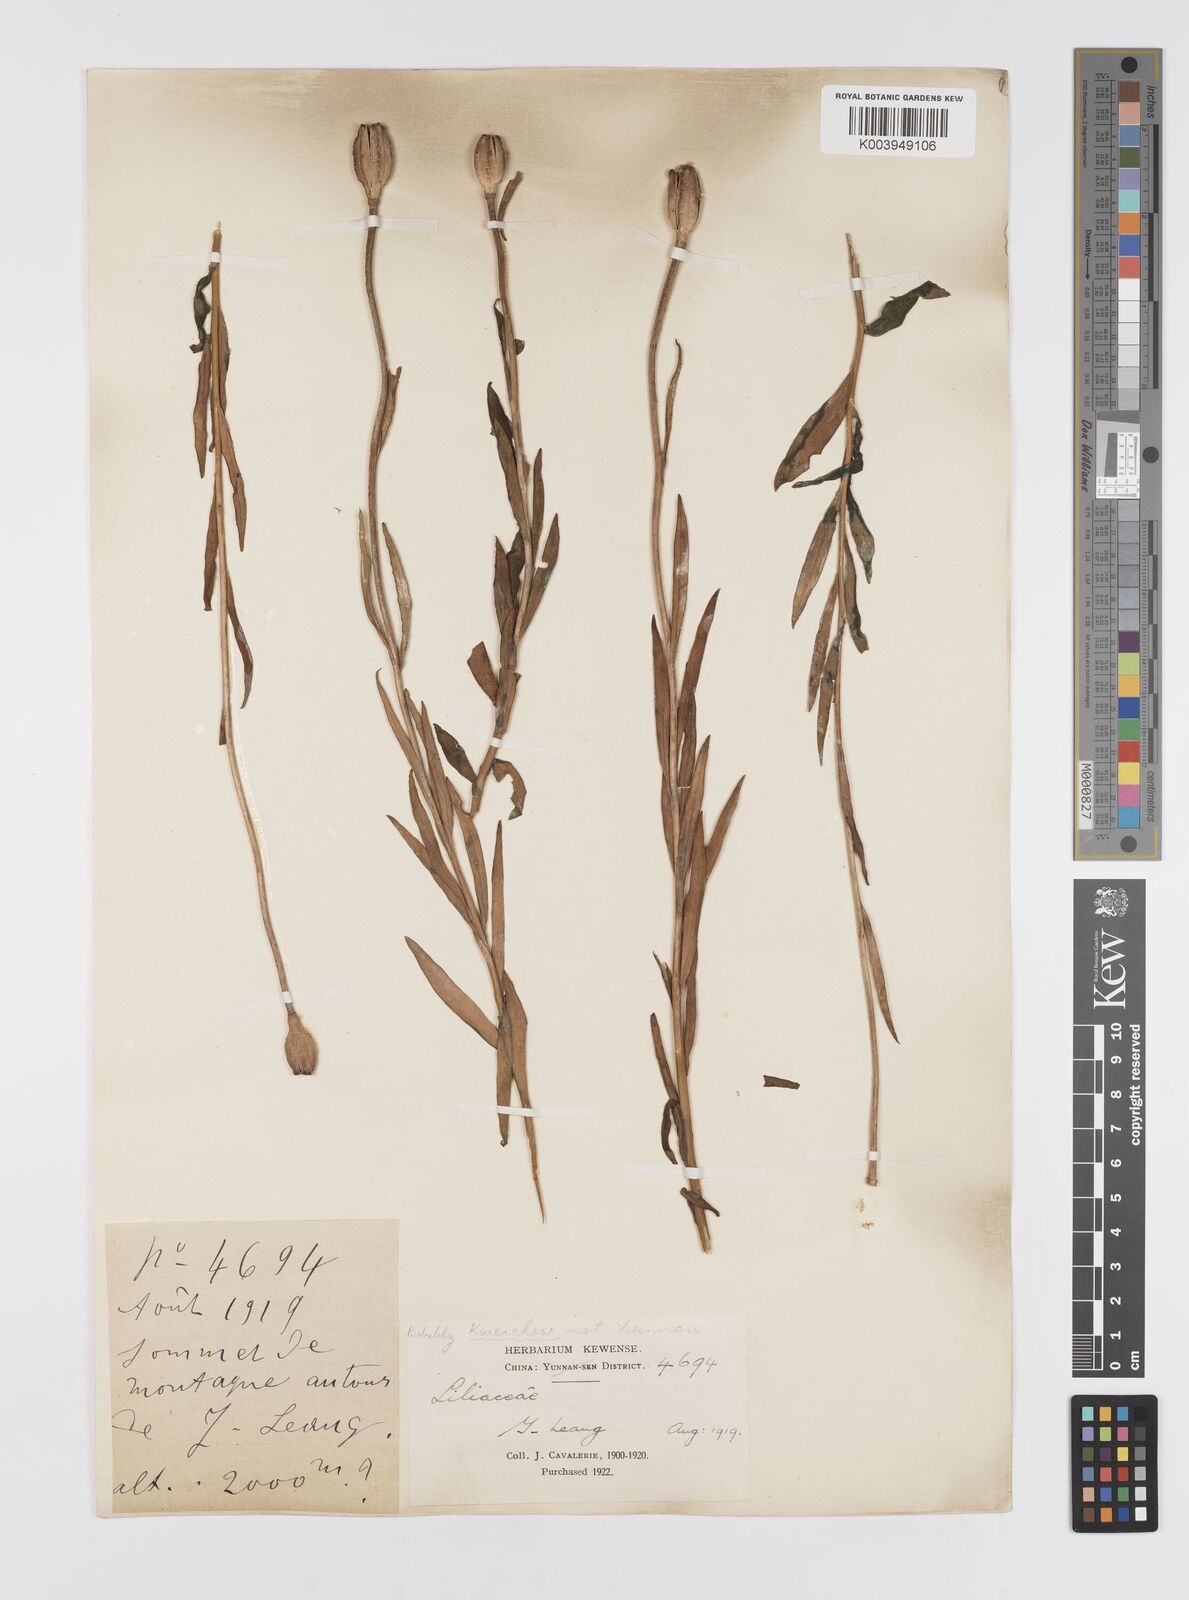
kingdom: Plantae
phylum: Tracheophyta
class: Liliopsida
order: Liliales
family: Liliaceae
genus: Lilium
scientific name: Lilium amoenum
